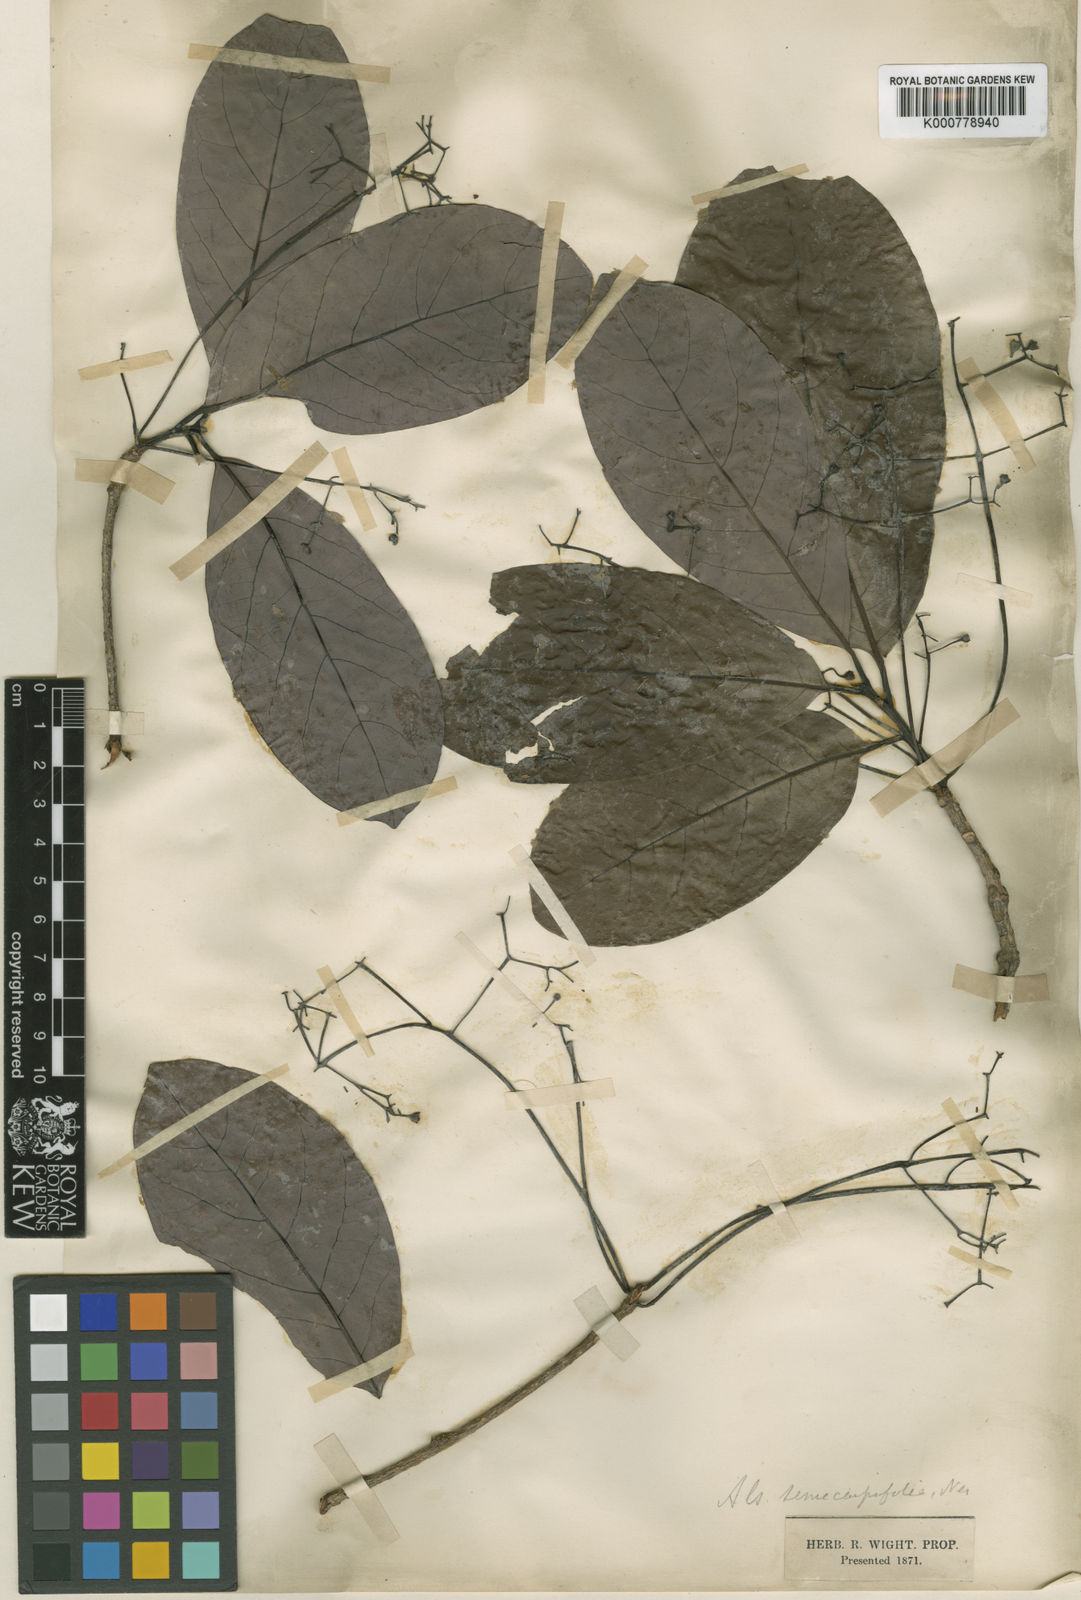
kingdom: Plantae
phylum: Tracheophyta
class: Magnoliopsida
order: Laurales
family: Lauraceae
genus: Alseodaphne
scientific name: Alseodaphne semecarpifolia
